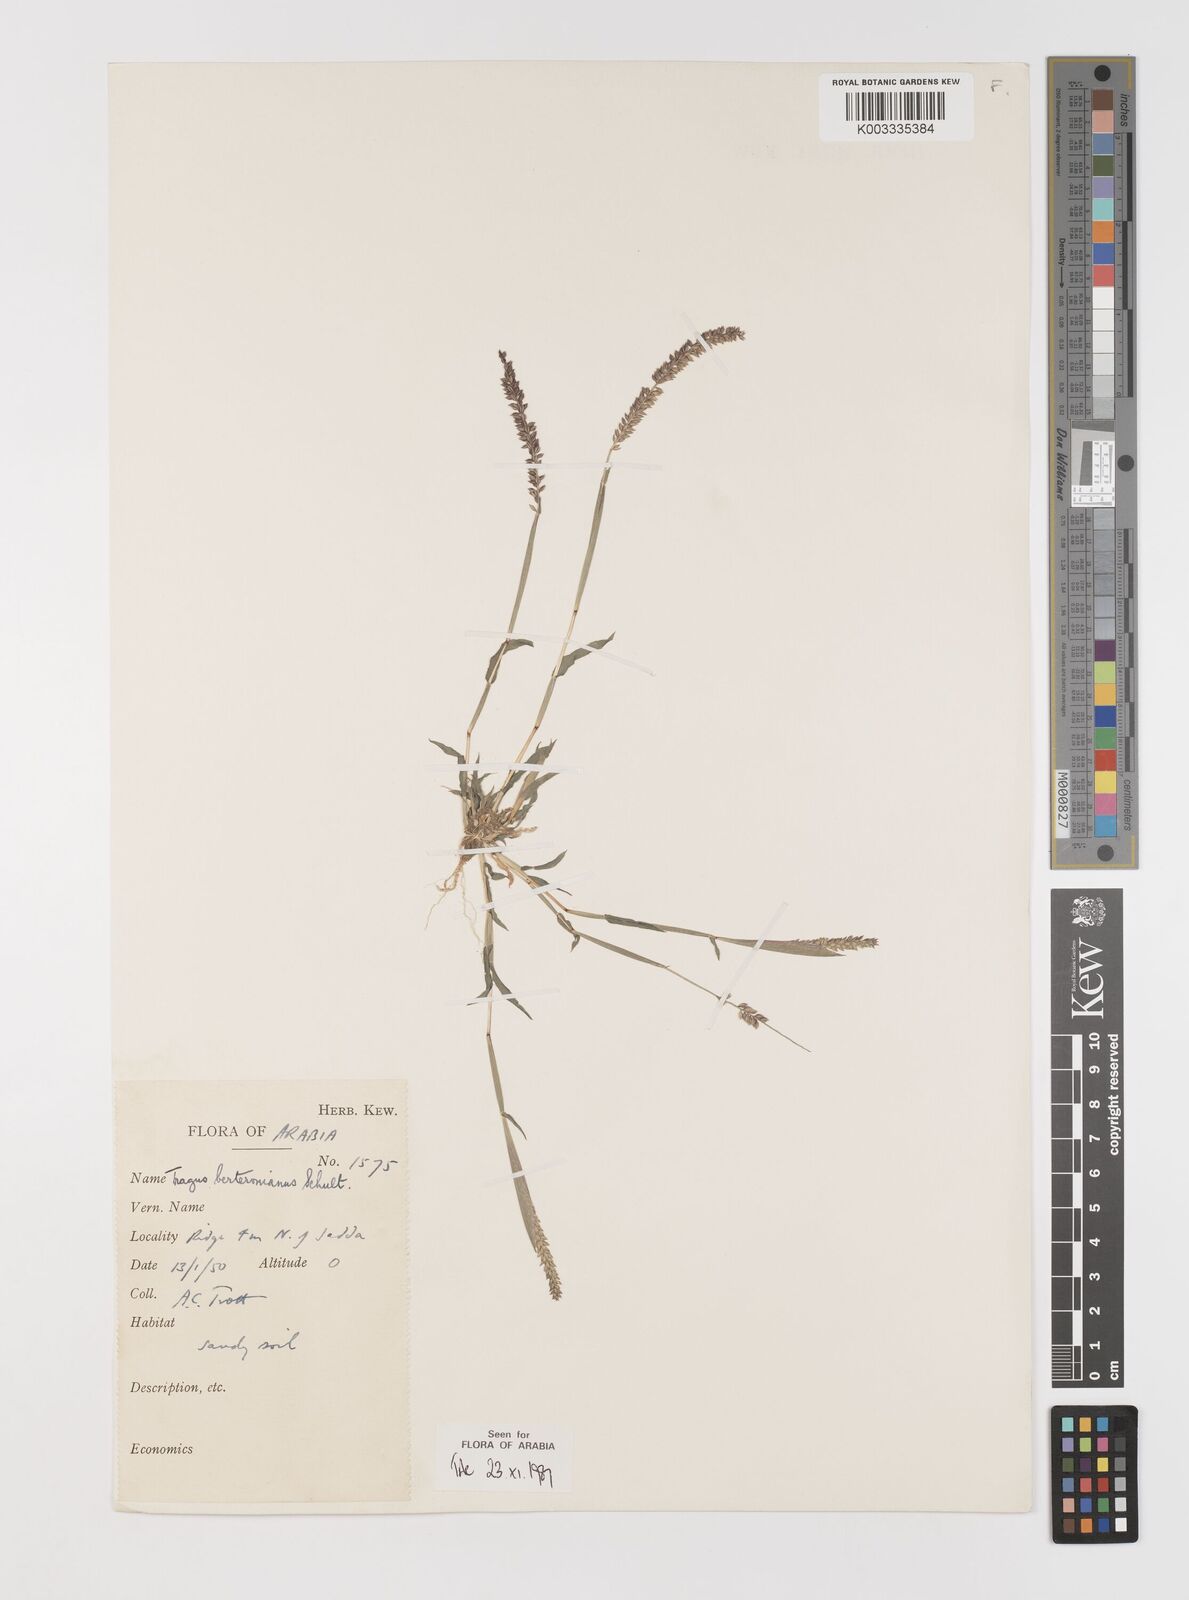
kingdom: Plantae
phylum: Tracheophyta
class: Liliopsida
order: Poales
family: Poaceae
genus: Tragus
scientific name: Tragus berteronianus
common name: African bur-grass
